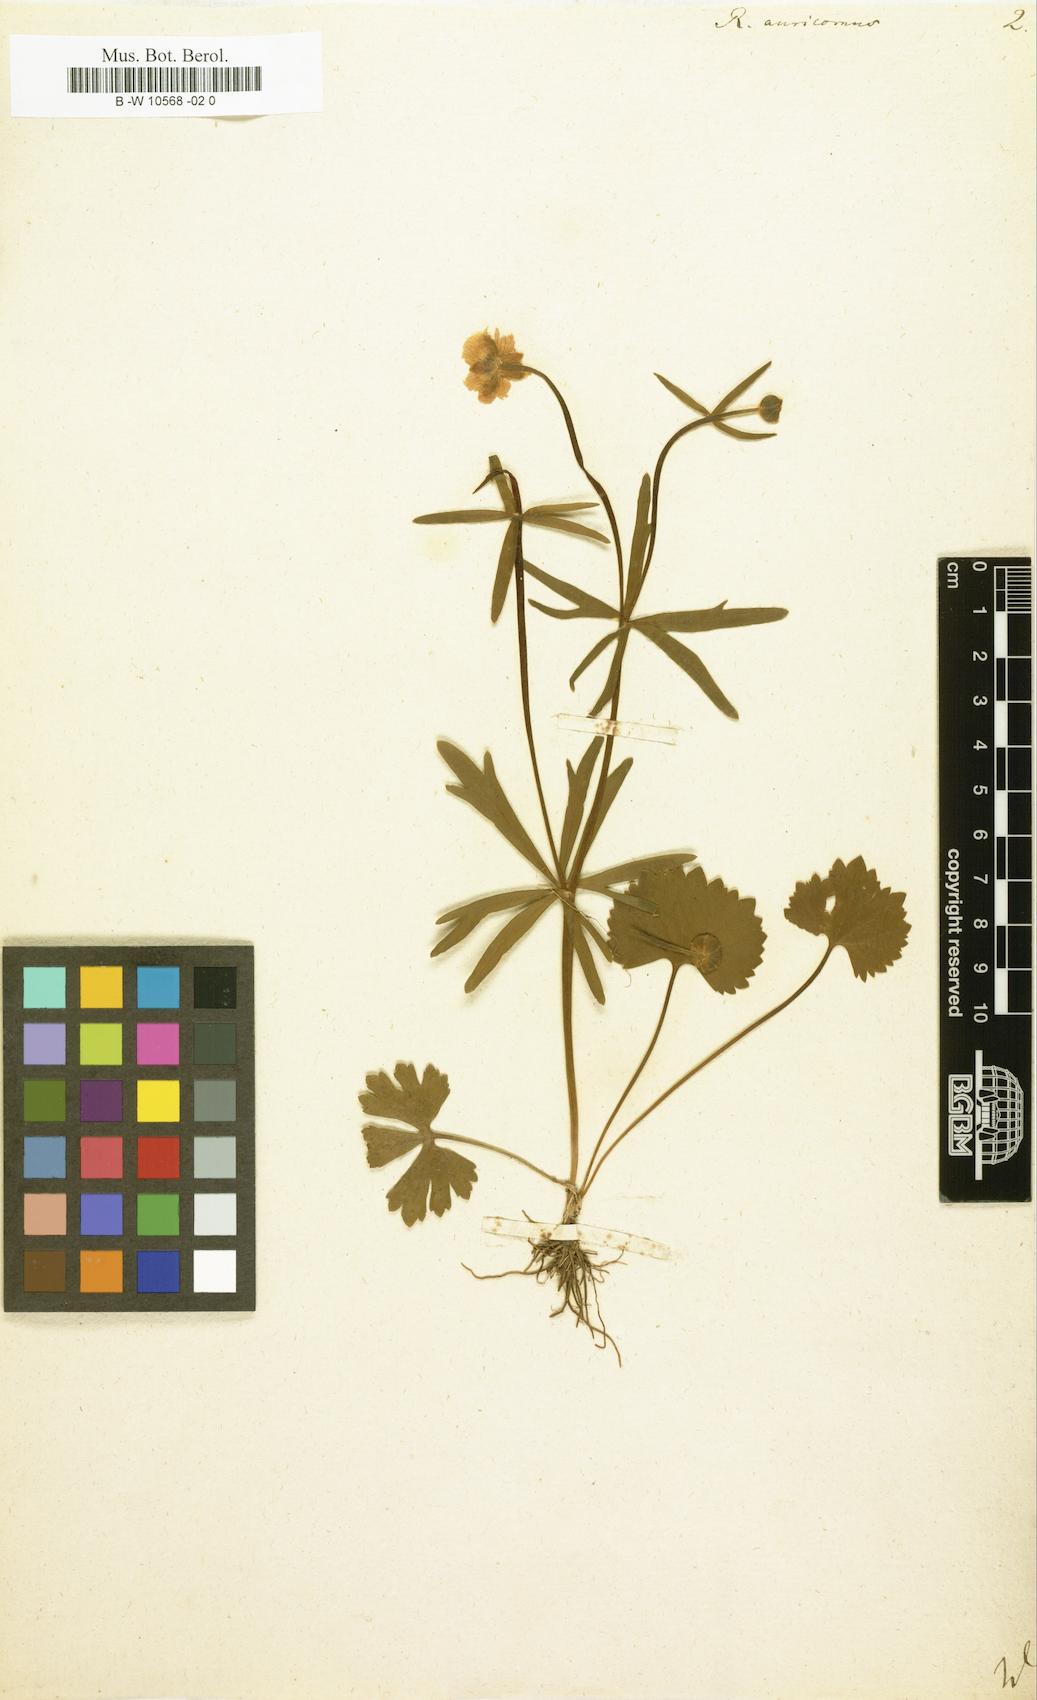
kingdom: Plantae
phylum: Tracheophyta
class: Magnoliopsida
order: Ranunculales
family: Ranunculaceae
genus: Ranunculus
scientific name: Ranunculus auricomus
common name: Goldilocks buttercup
